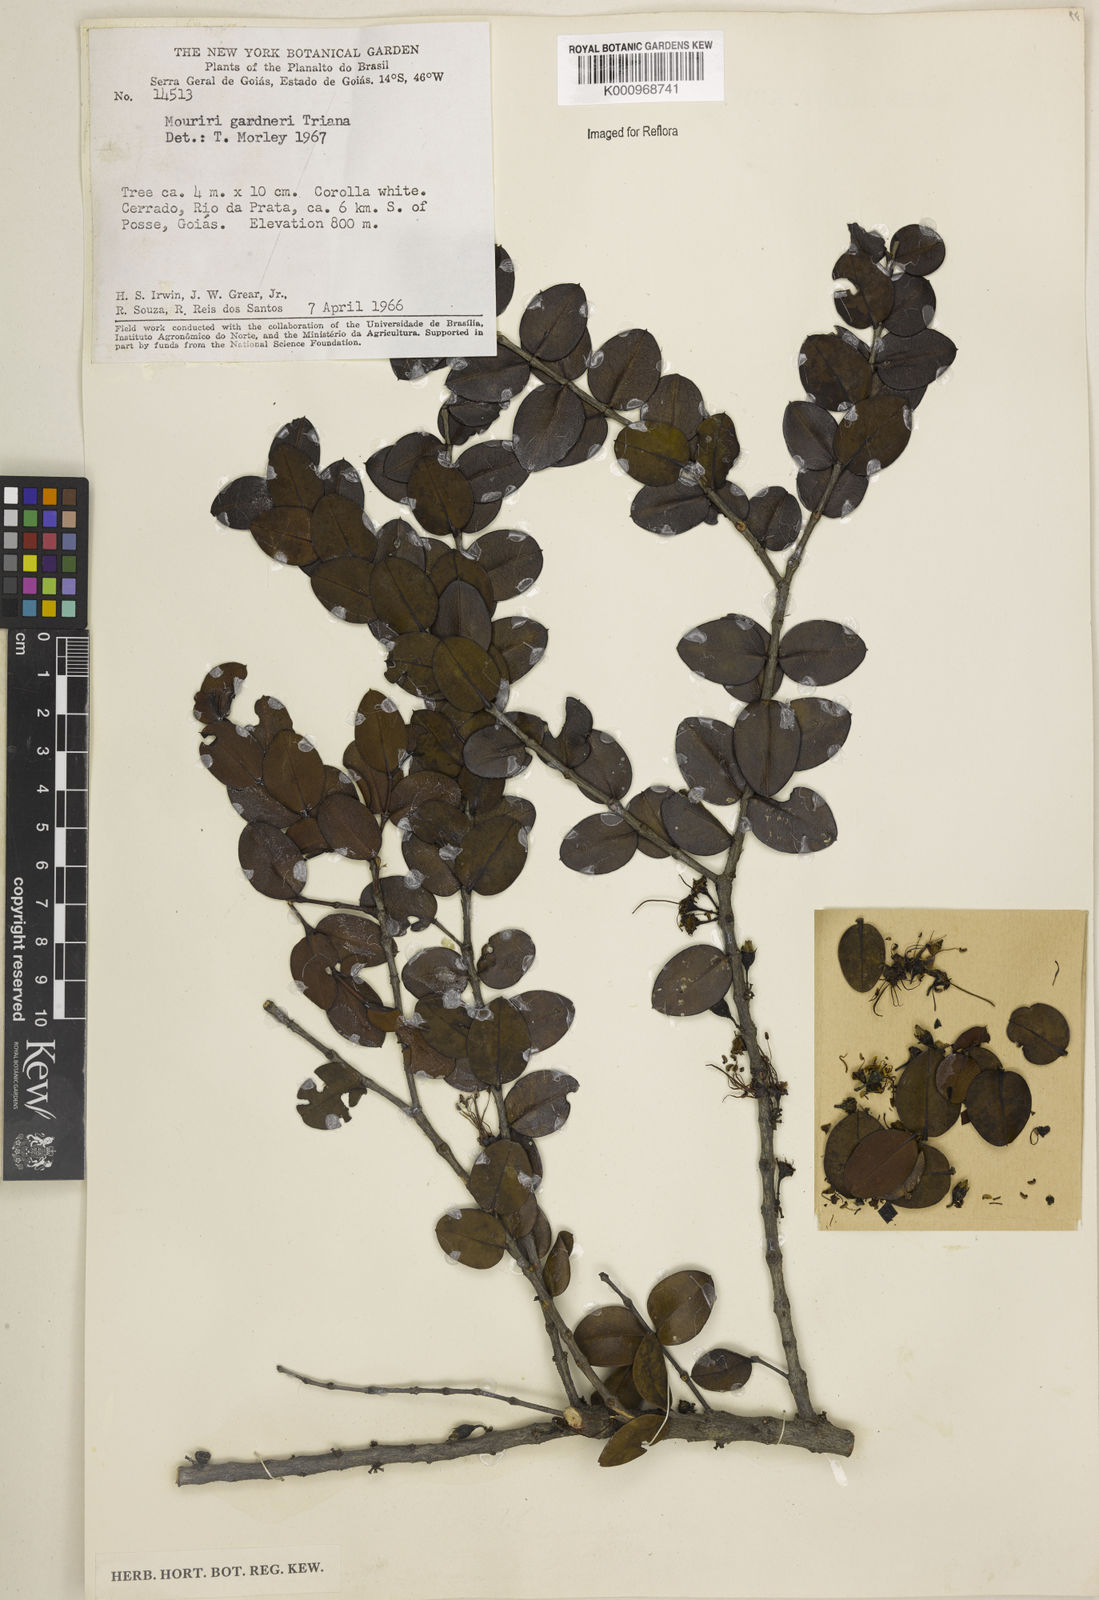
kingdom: Plantae
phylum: Tracheophyta
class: Magnoliopsida
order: Myrtales
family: Melastomataceae
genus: Mouriri
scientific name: Mouriri gardneri
